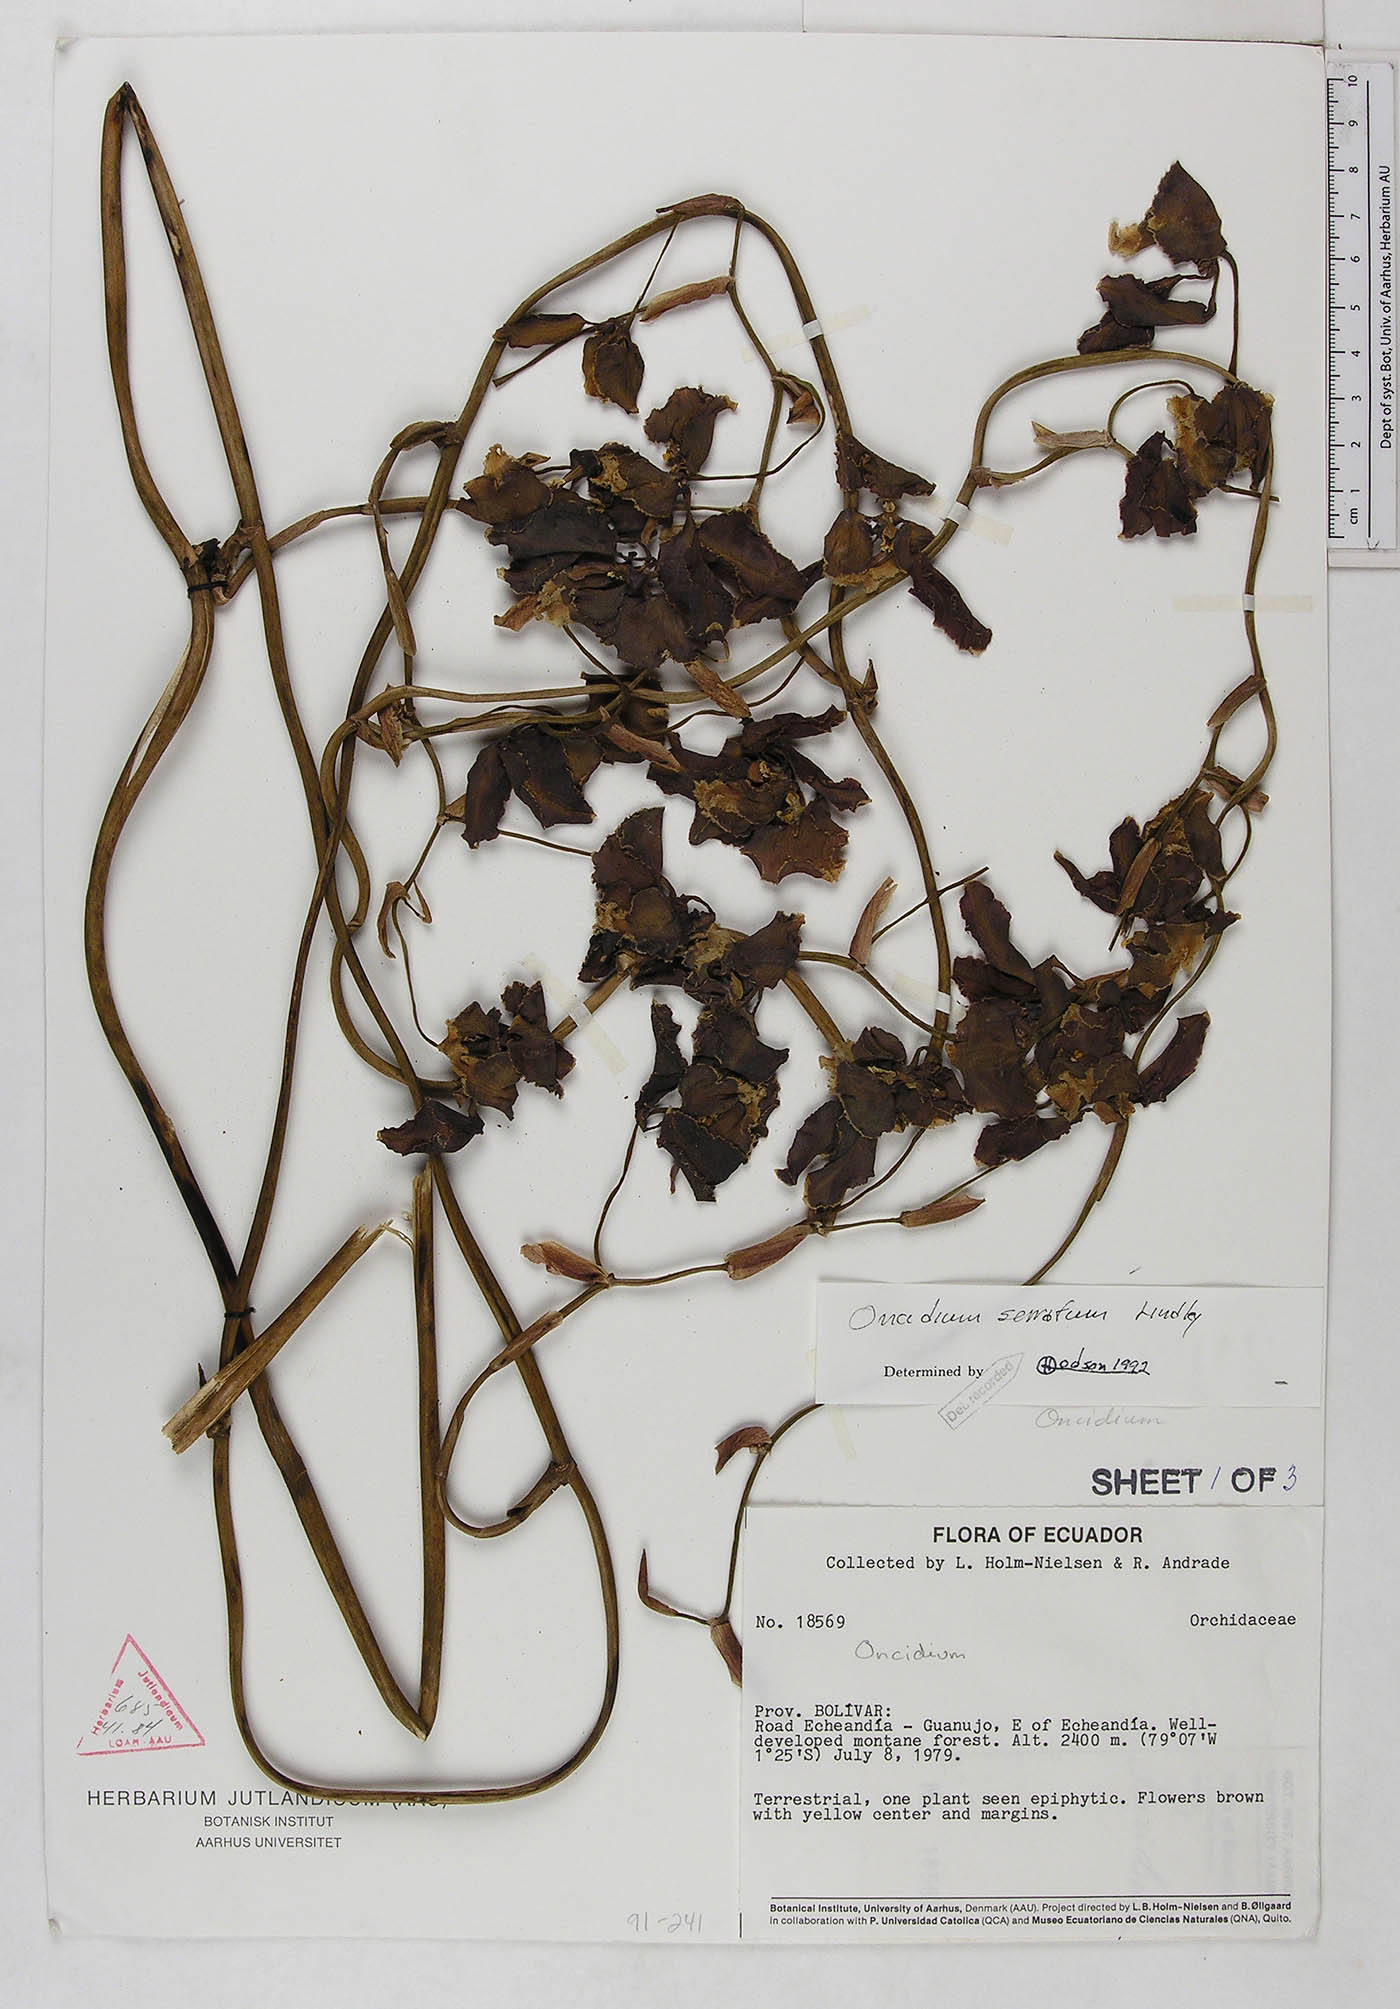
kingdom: Plantae
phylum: Tracheophyta
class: Liliopsida
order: Asparagales
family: Orchidaceae
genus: Cyrtochilum
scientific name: Cyrtochilum serratum
